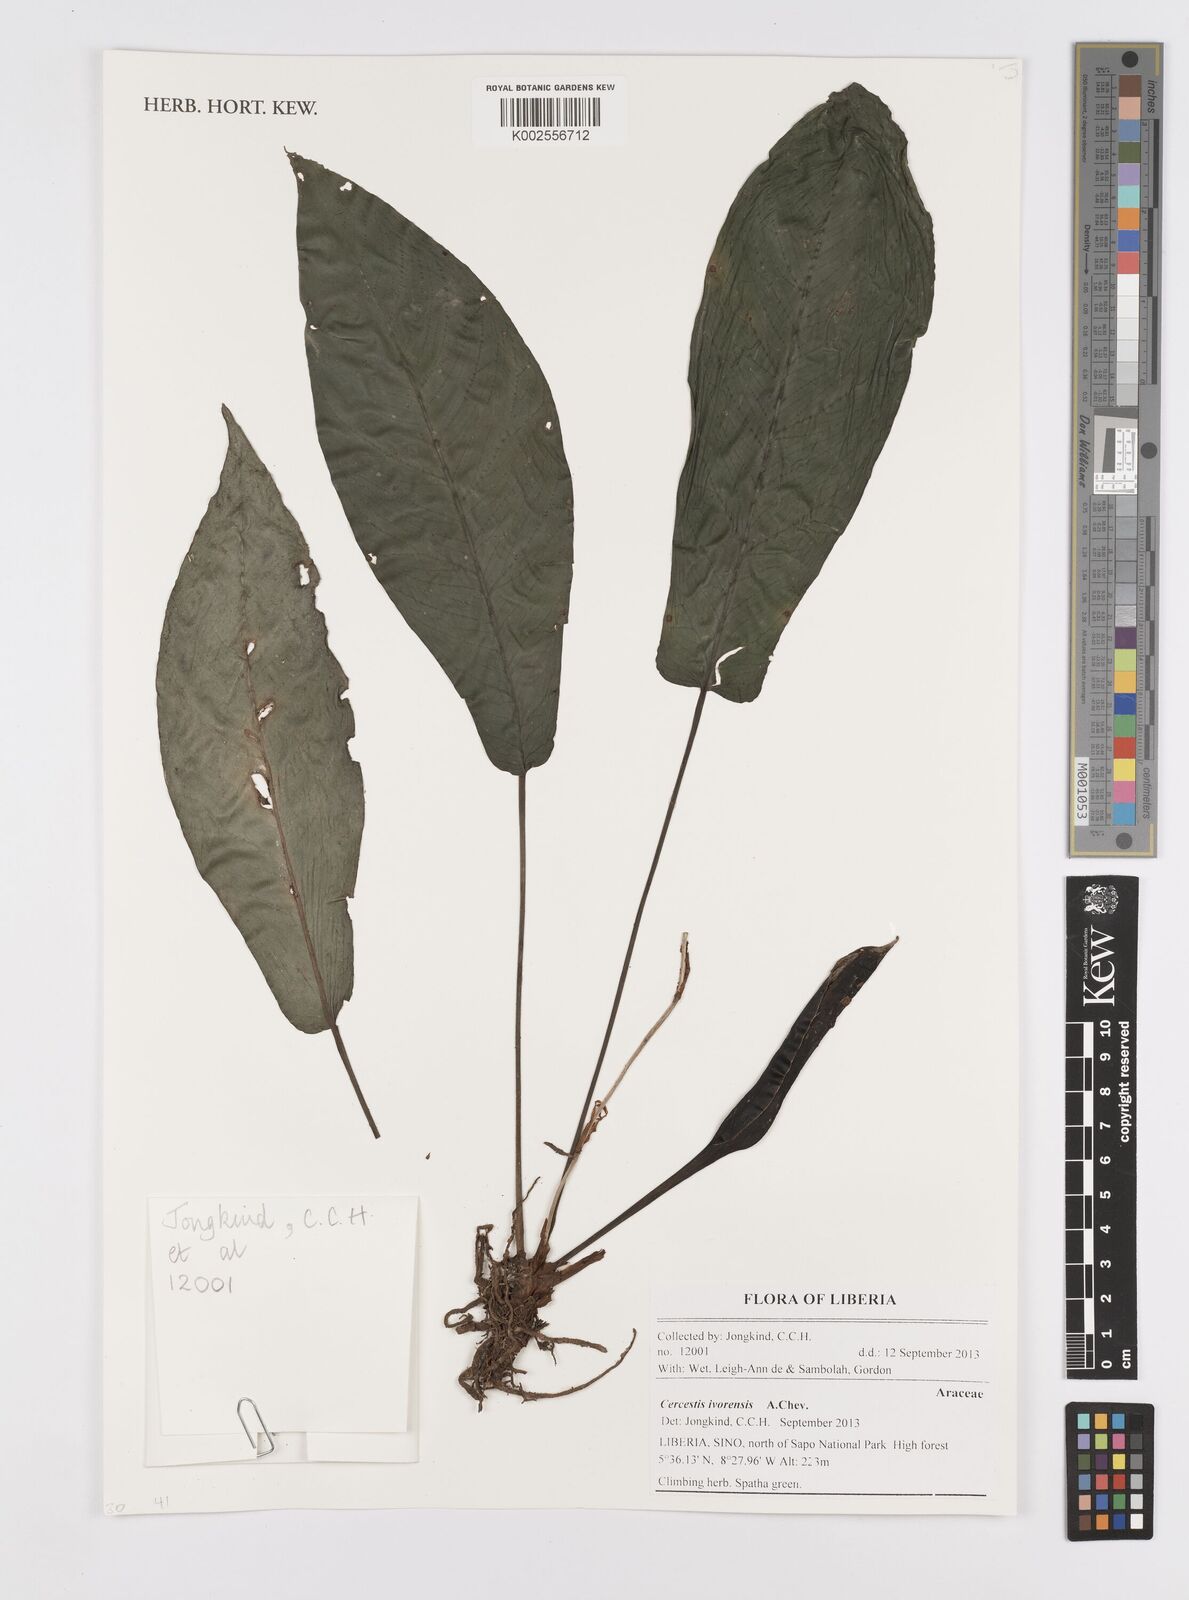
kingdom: Plantae
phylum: Tracheophyta
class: Liliopsida
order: Alismatales
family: Araceae
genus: Cercestis
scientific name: Cercestis ivorensis
